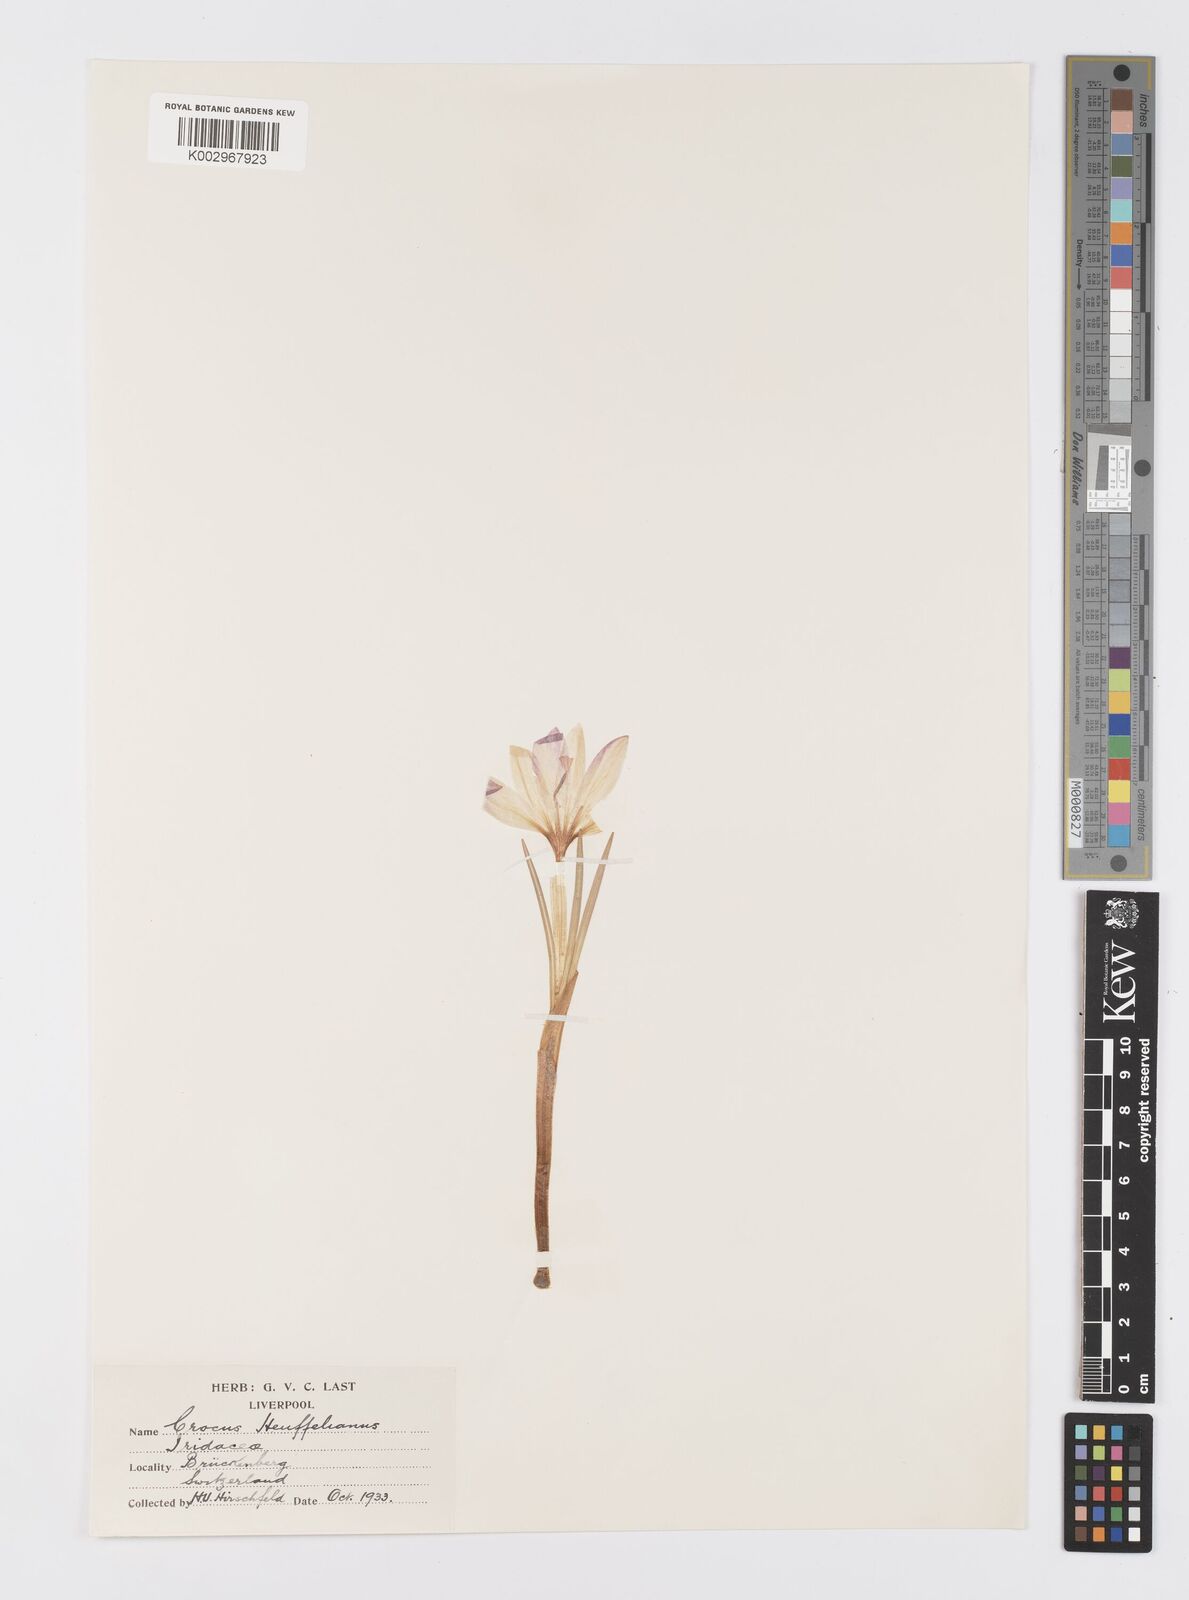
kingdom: Plantae
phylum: Tracheophyta
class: Liliopsida
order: Asparagales
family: Iridaceae
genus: Crocus
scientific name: Crocus
